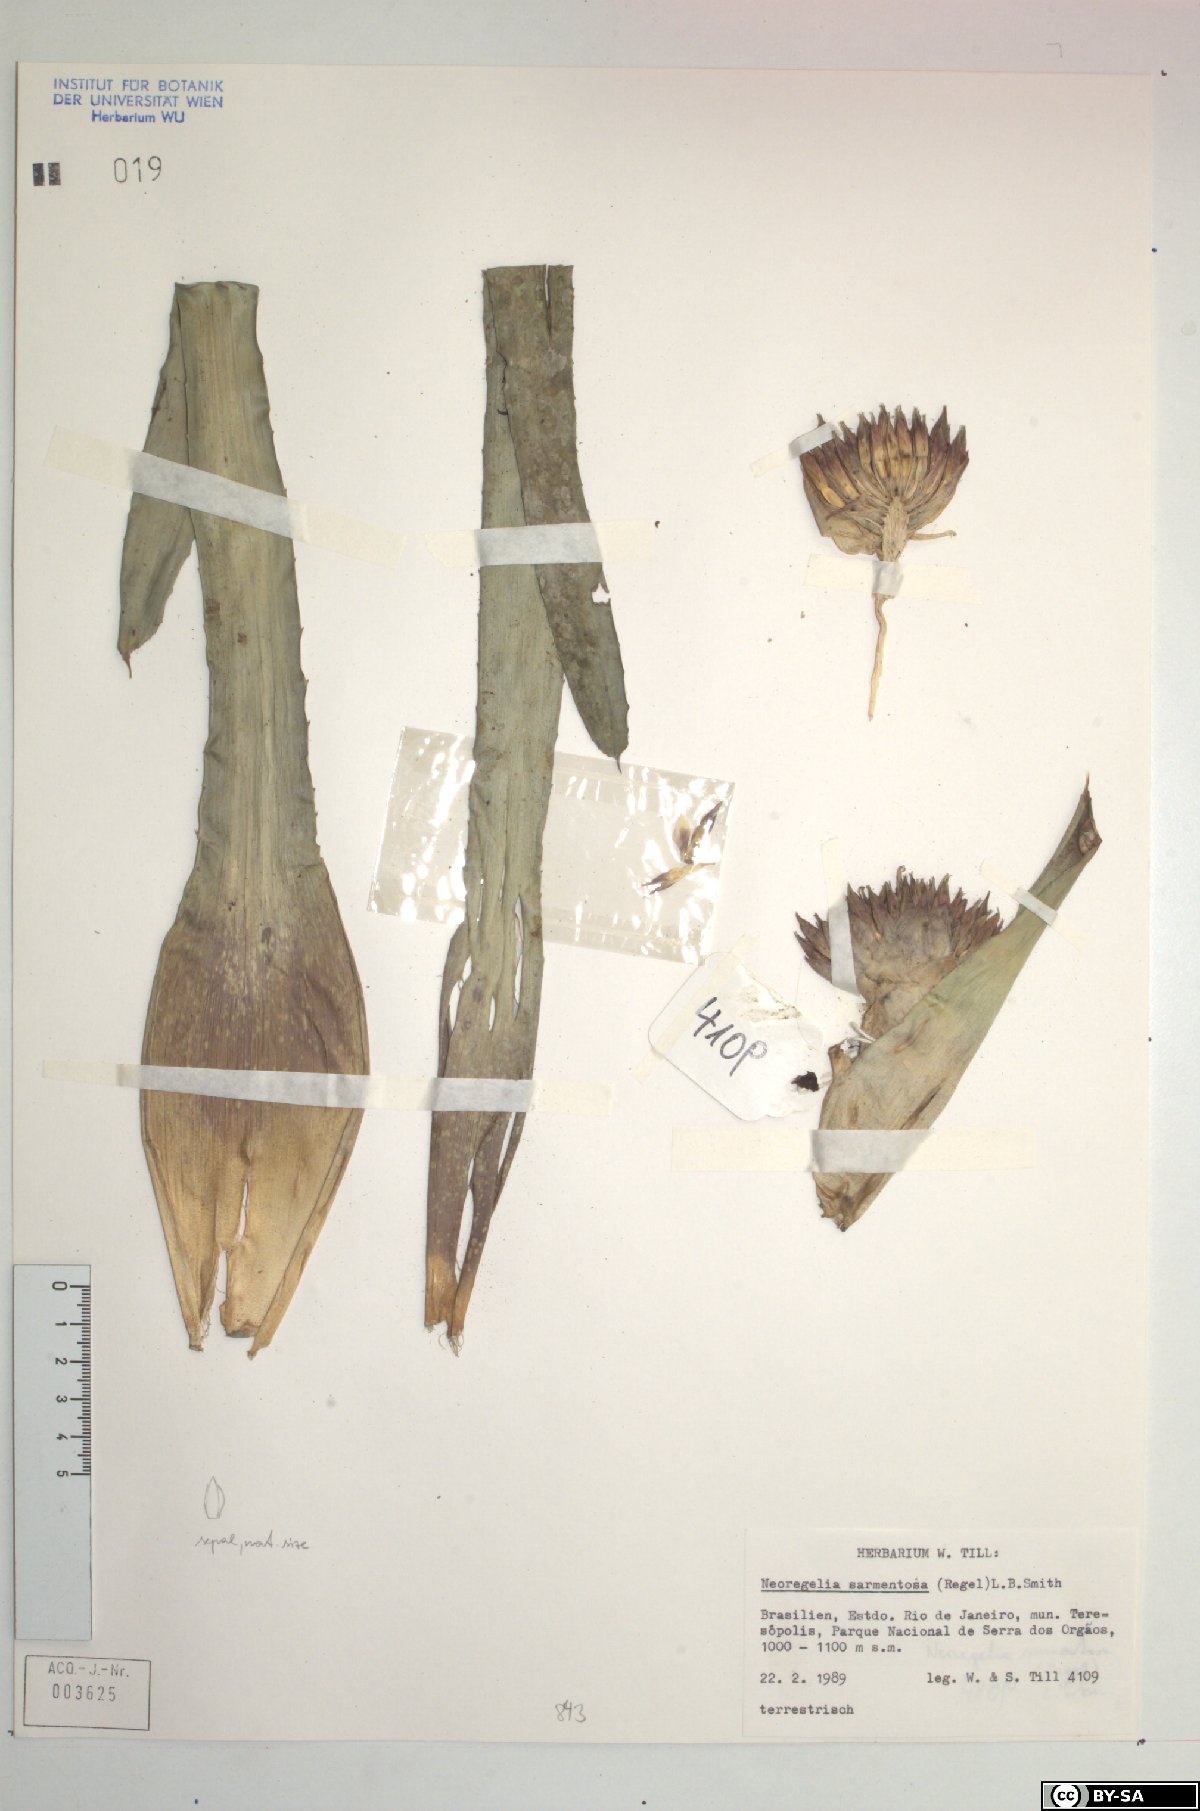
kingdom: Plantae
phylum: Tracheophyta
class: Liliopsida
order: Poales
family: Bromeliaceae
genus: Neoregelia
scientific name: Neoregelia sarmentosa
